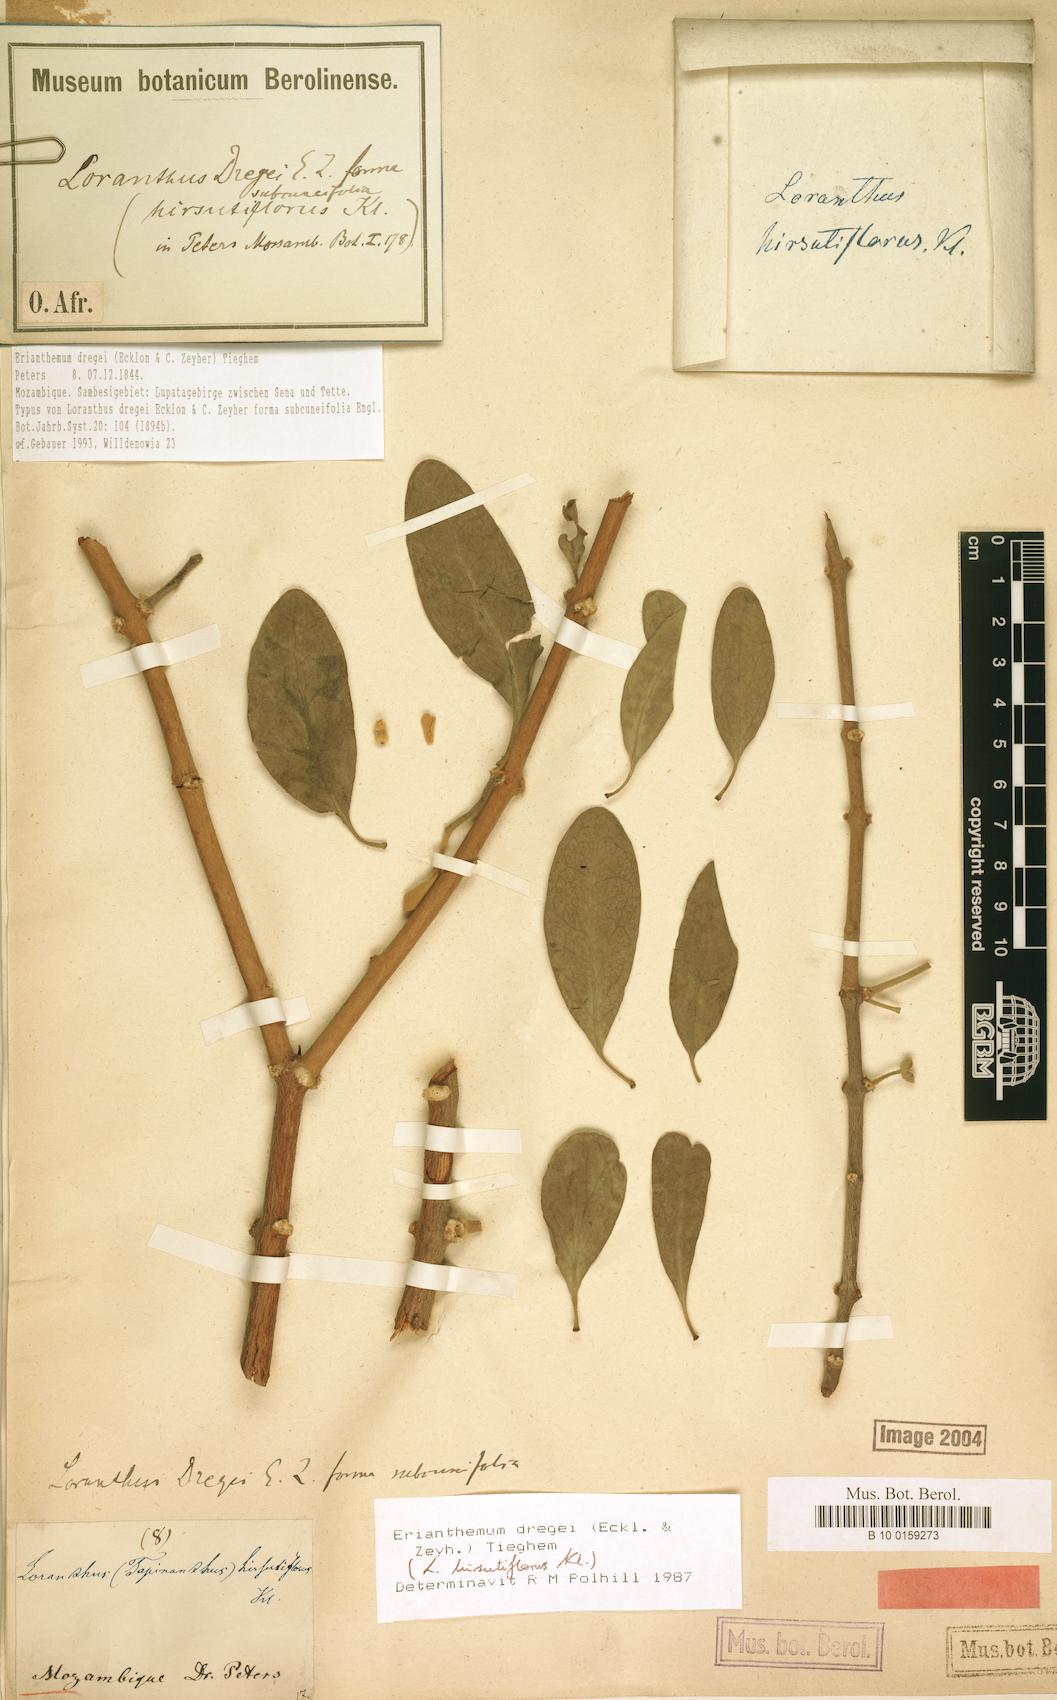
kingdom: Plantae
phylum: Tracheophyta
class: Magnoliopsida
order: Santalales
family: Loranthaceae
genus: Erianthemum
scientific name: Erianthemum dregei
